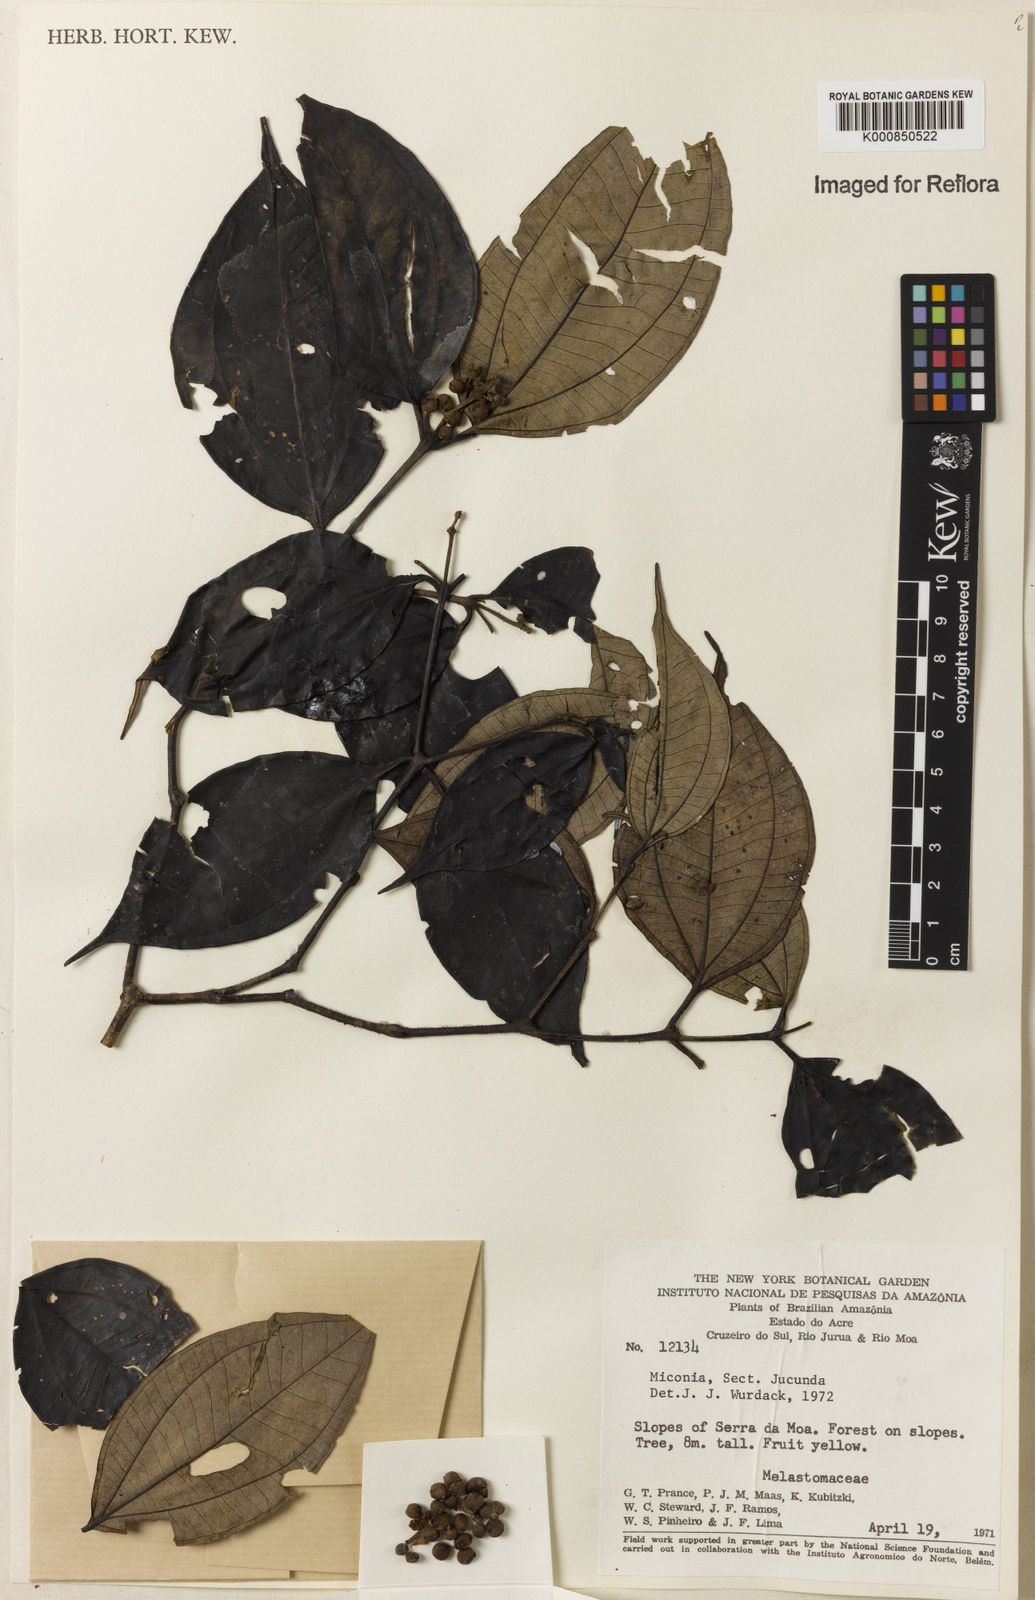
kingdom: Plantae
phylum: Tracheophyta
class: Magnoliopsida
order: Myrtales
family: Melastomataceae
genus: Miconia
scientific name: Miconia
